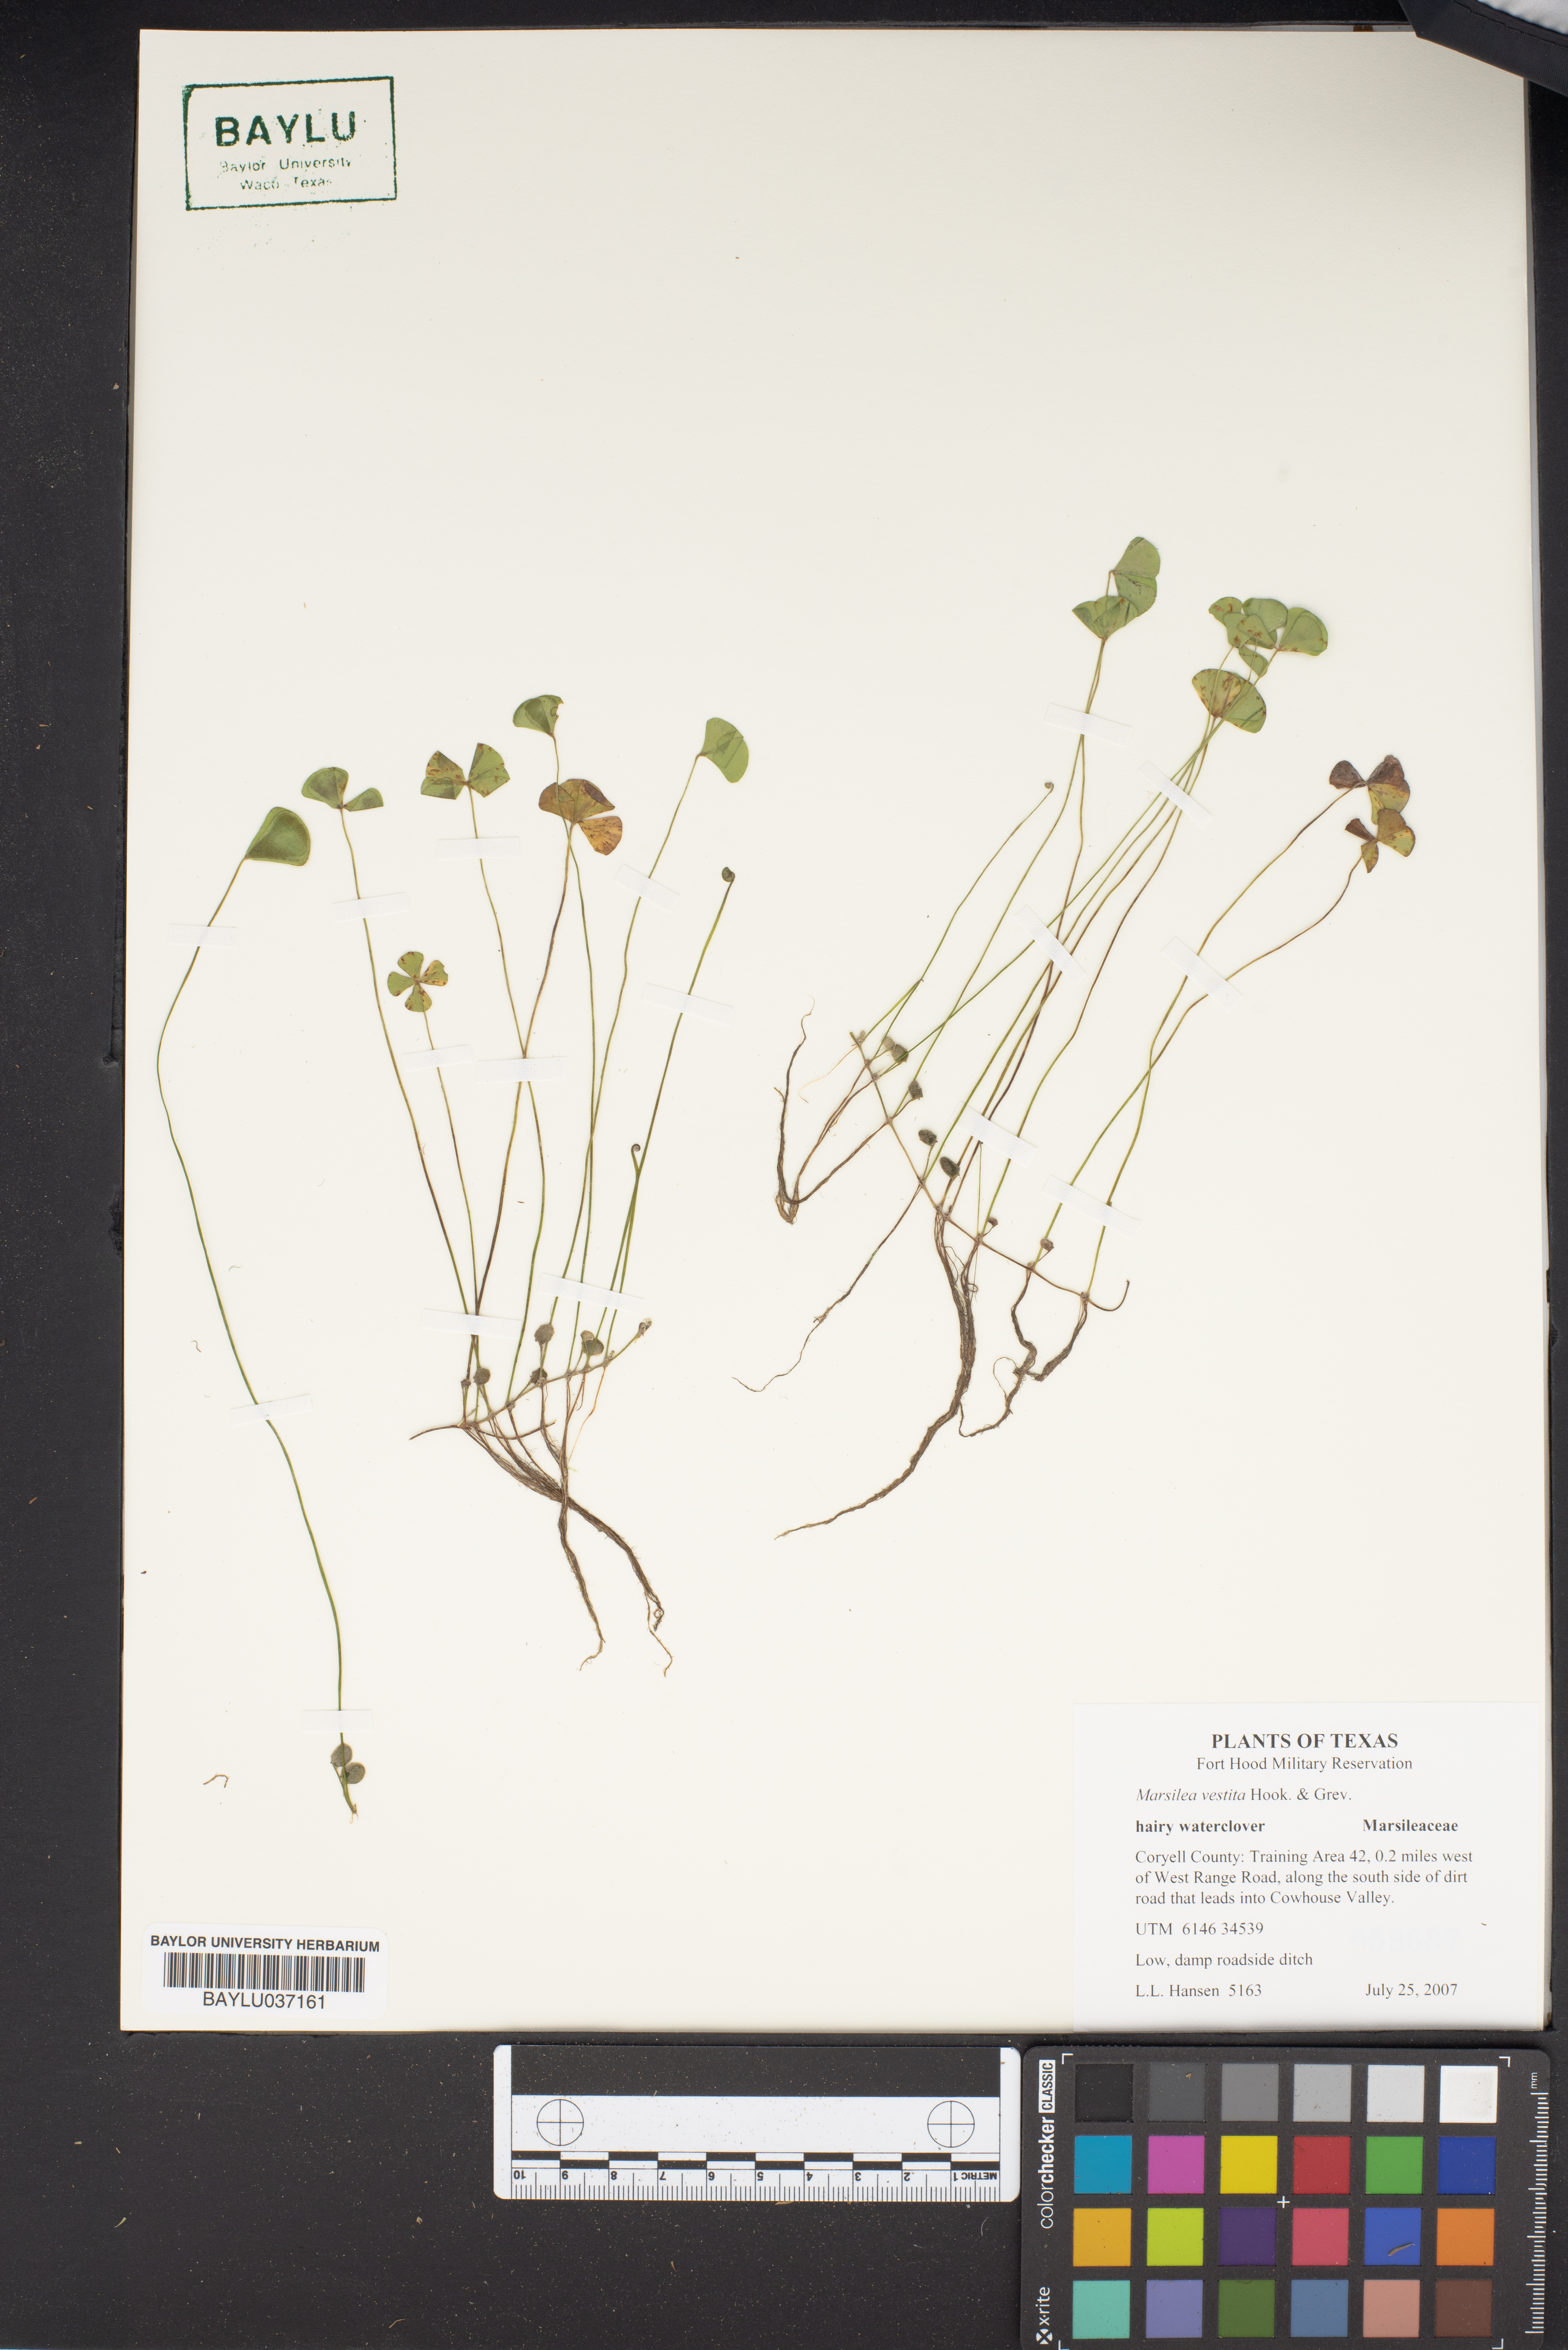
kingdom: Plantae
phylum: Tracheophyta
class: Polypodiopsida
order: Salviniales
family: Marsileaceae
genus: Marsilea
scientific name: Marsilea vestita
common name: Hooked-pepperwort
